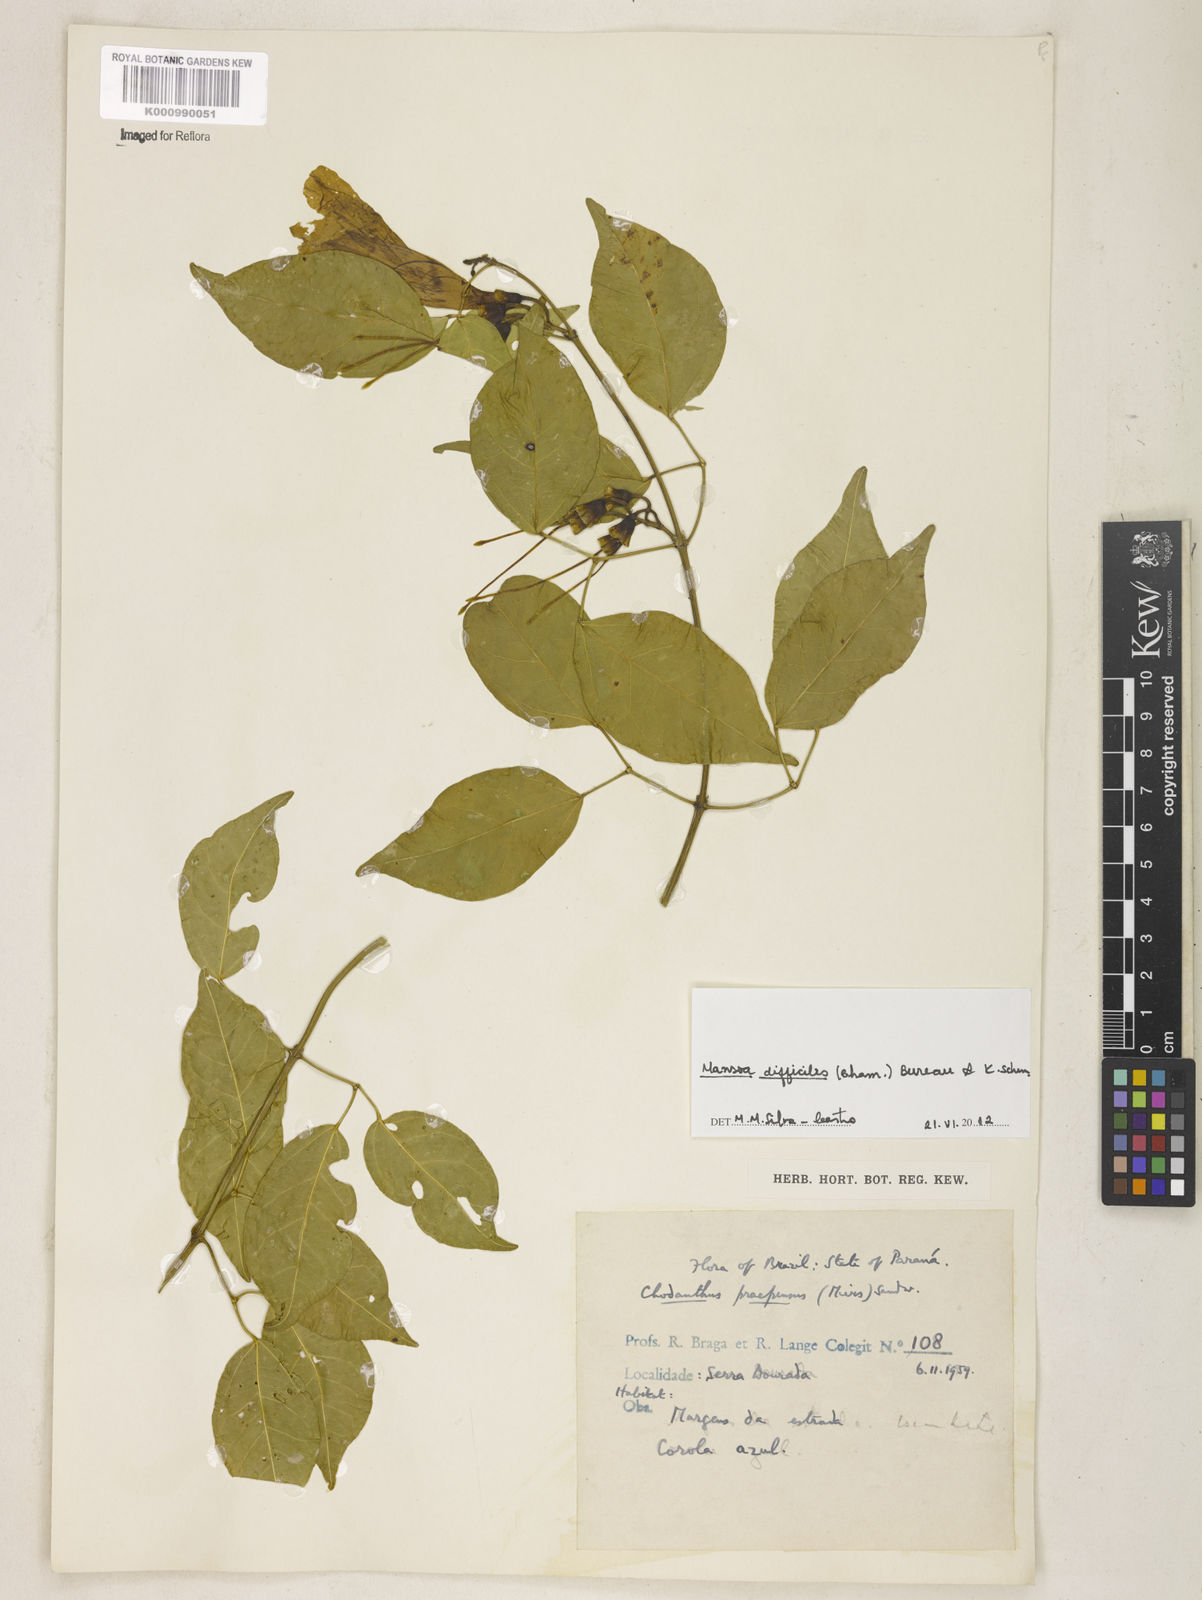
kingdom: Plantae
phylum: Tracheophyta
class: Magnoliopsida
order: Lamiales
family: Bignoniaceae
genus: Mansoa
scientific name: Mansoa difficilis
